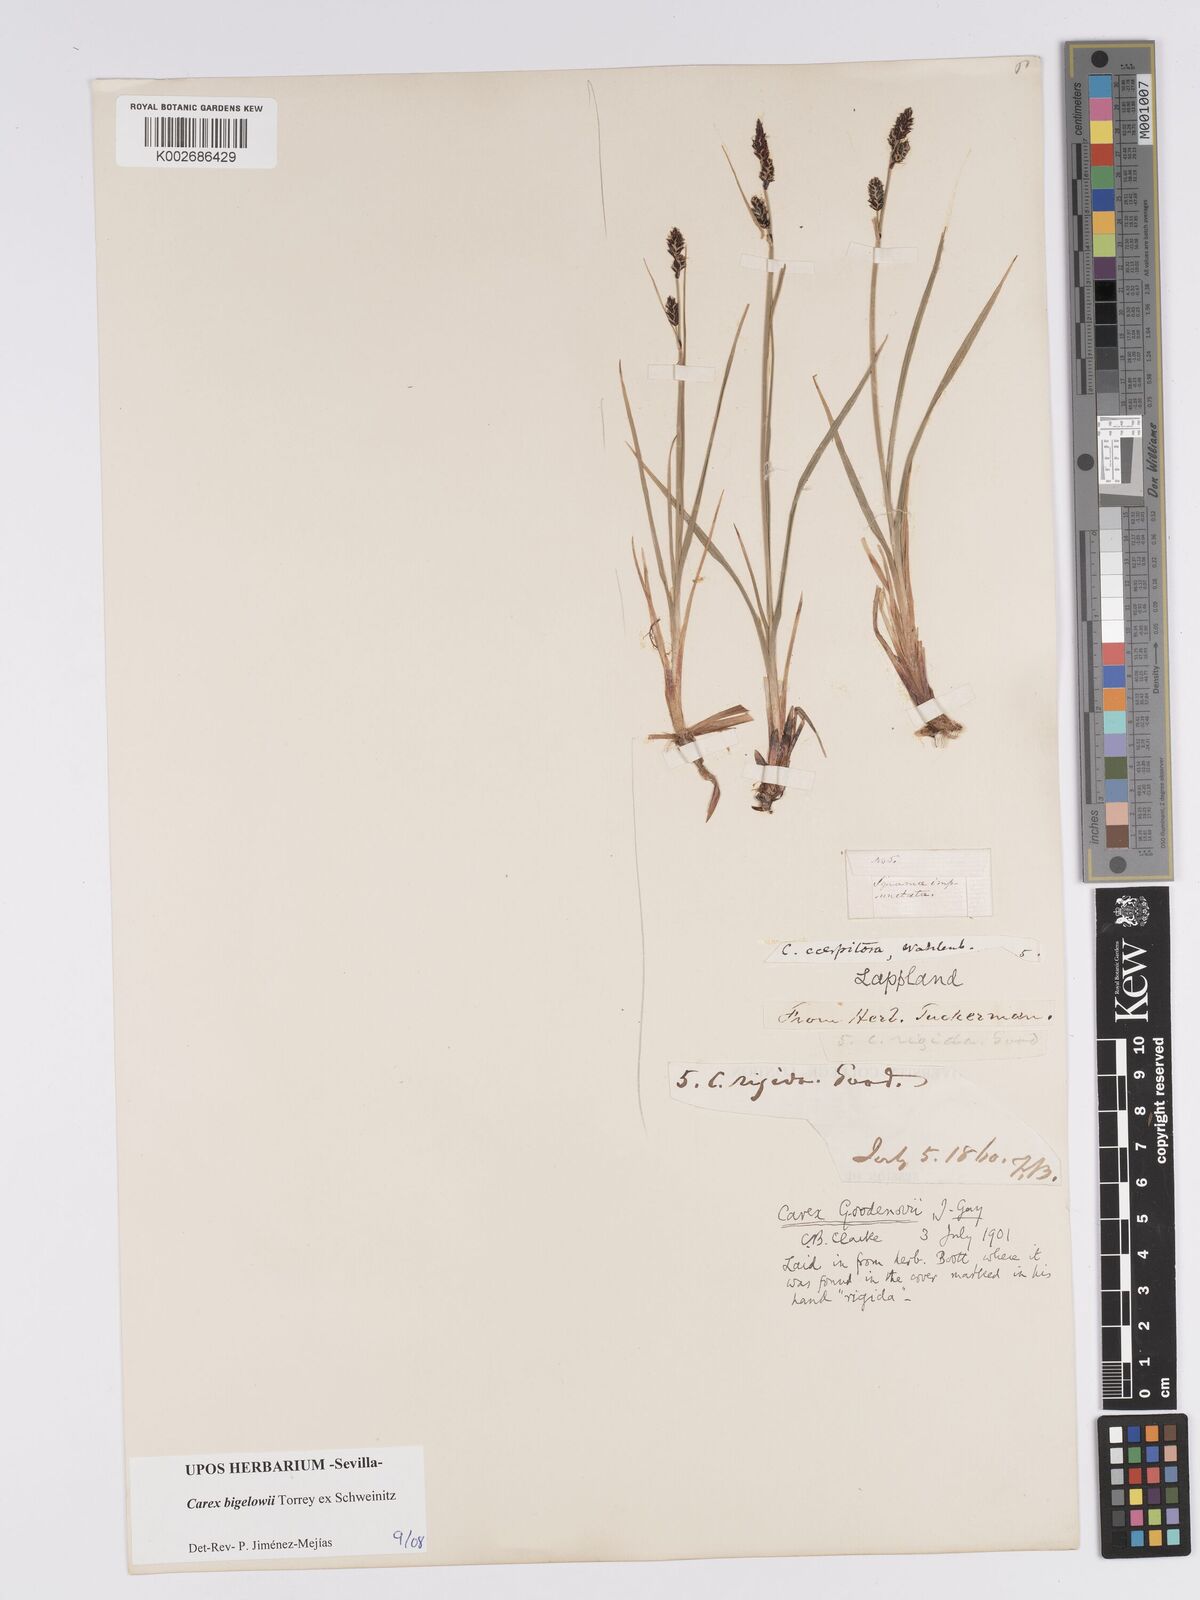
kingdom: Plantae
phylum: Tracheophyta
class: Liliopsida
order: Poales
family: Cyperaceae
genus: Carex
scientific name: Carex bigelowii
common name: Stiff sedge
